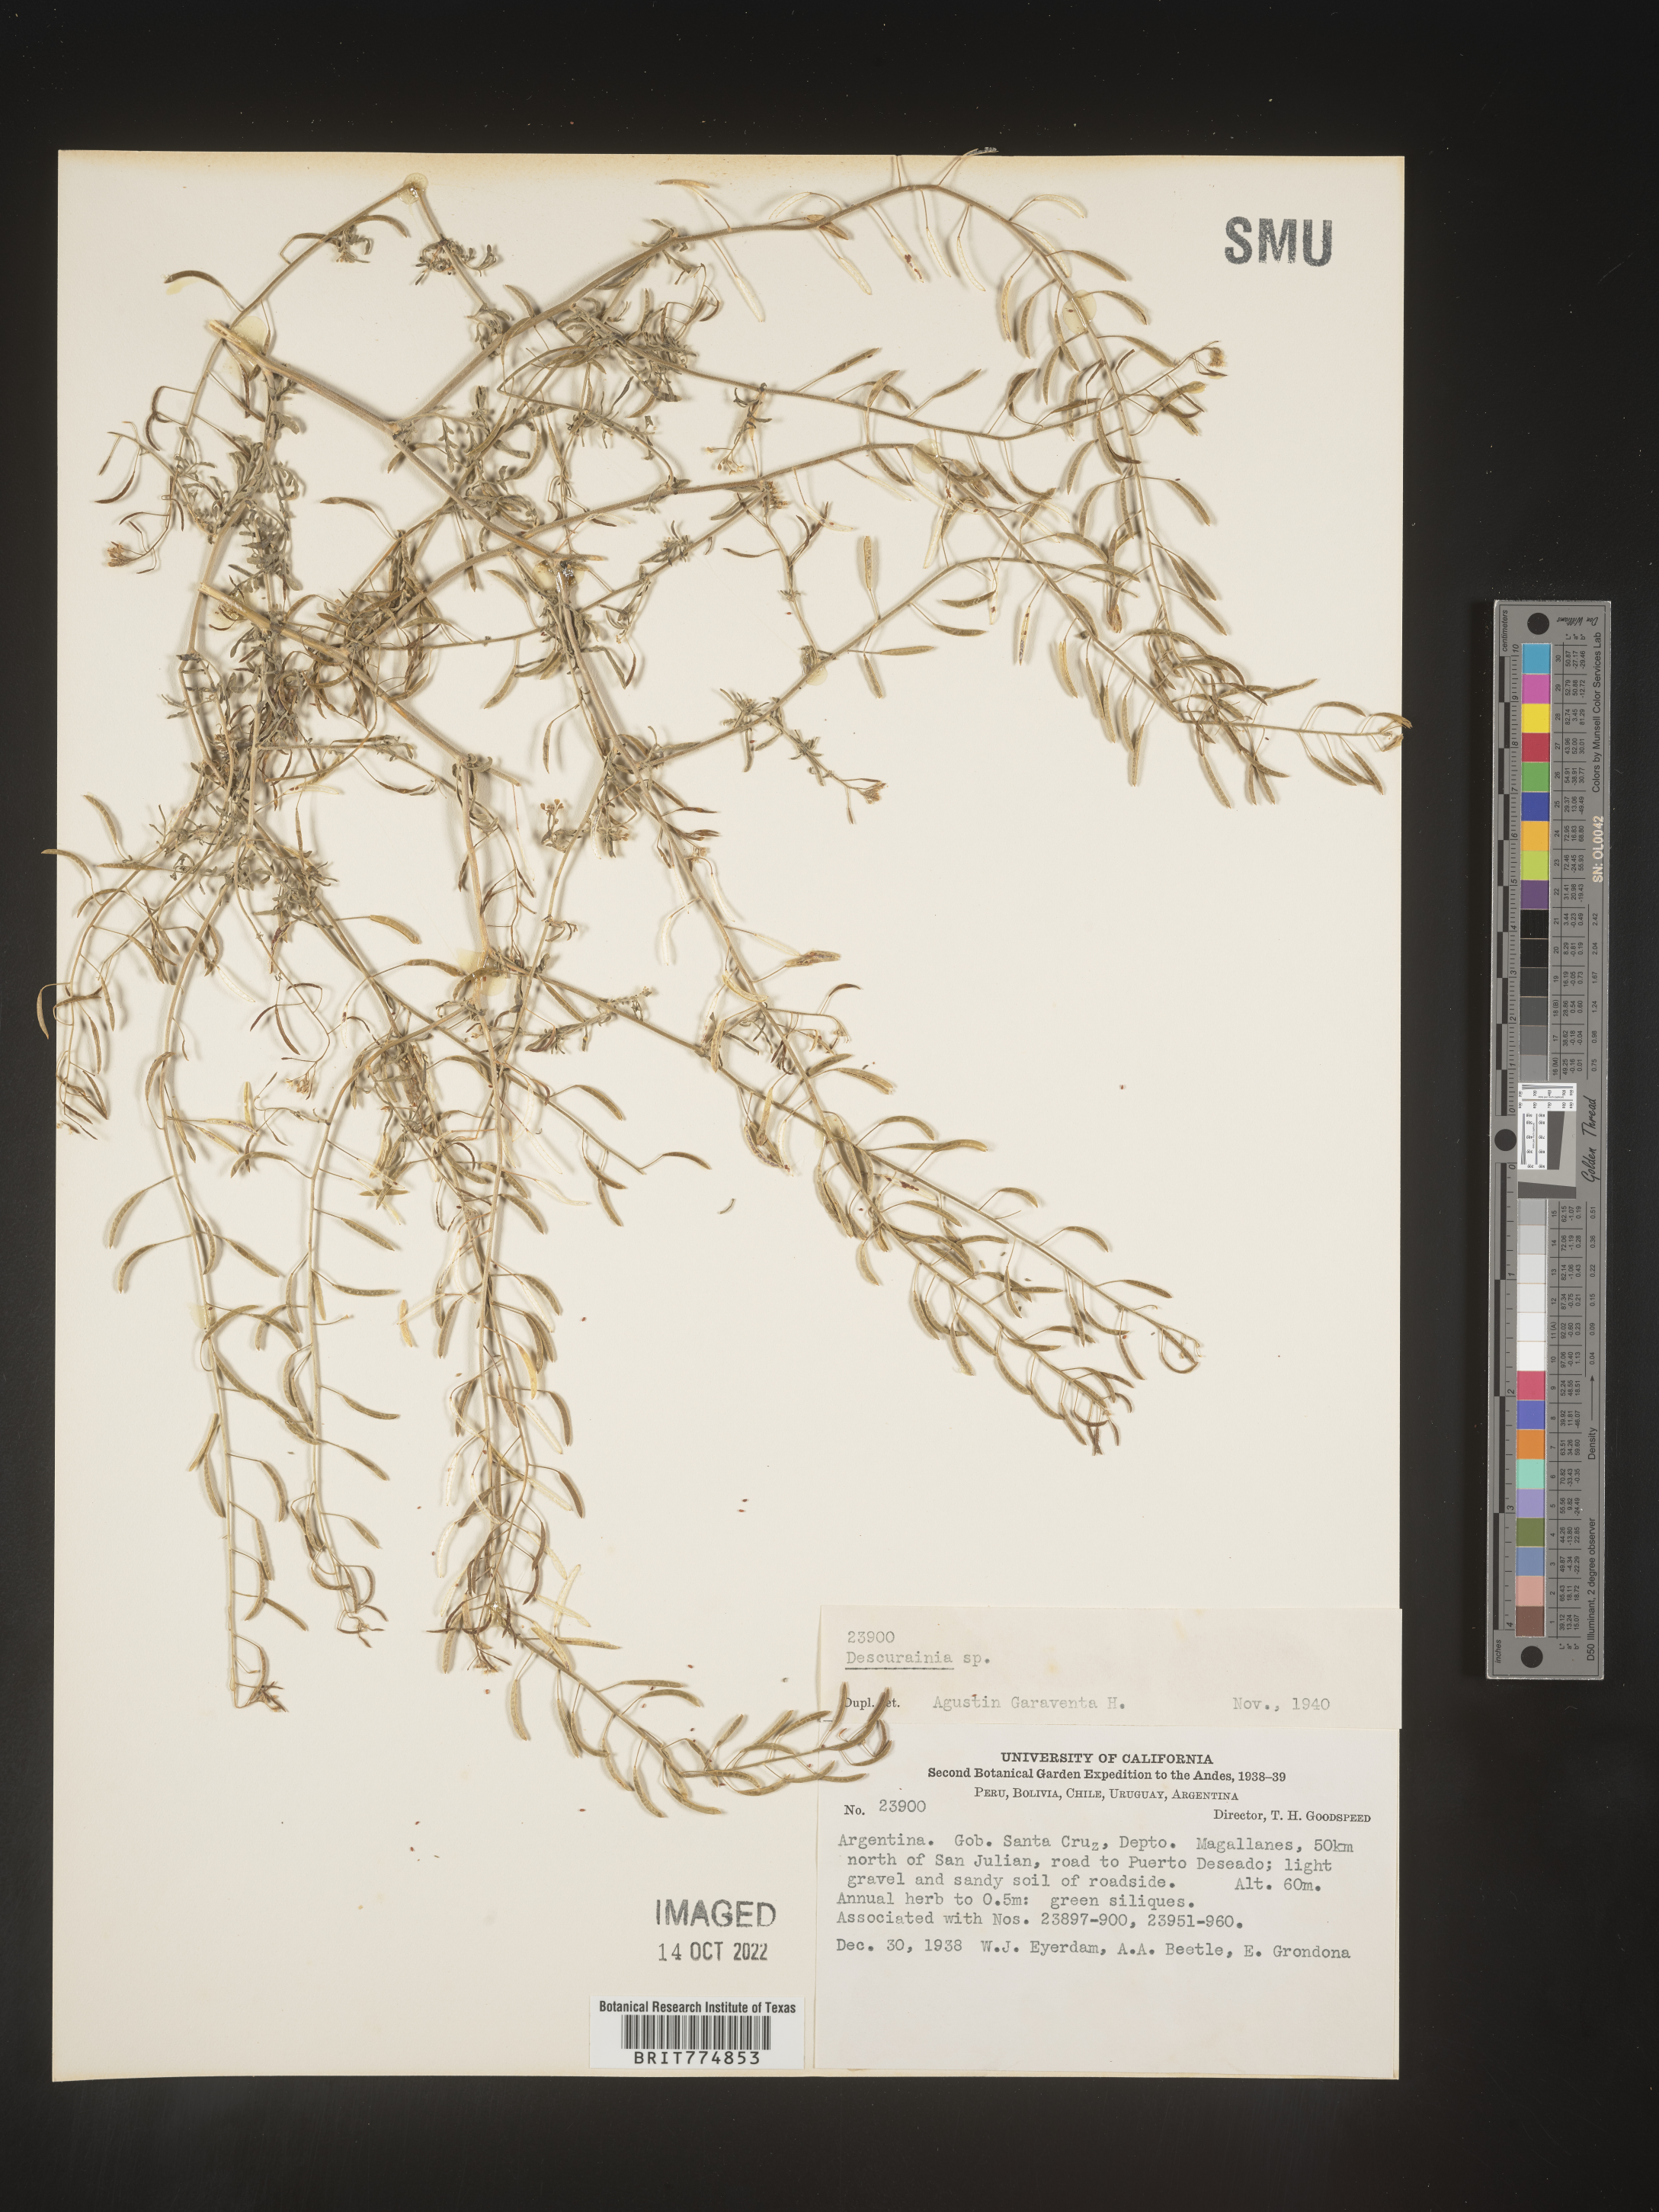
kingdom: Plantae
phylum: Tracheophyta
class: Magnoliopsida
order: Brassicales
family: Brassicaceae
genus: Descurainia
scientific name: Descurainia
